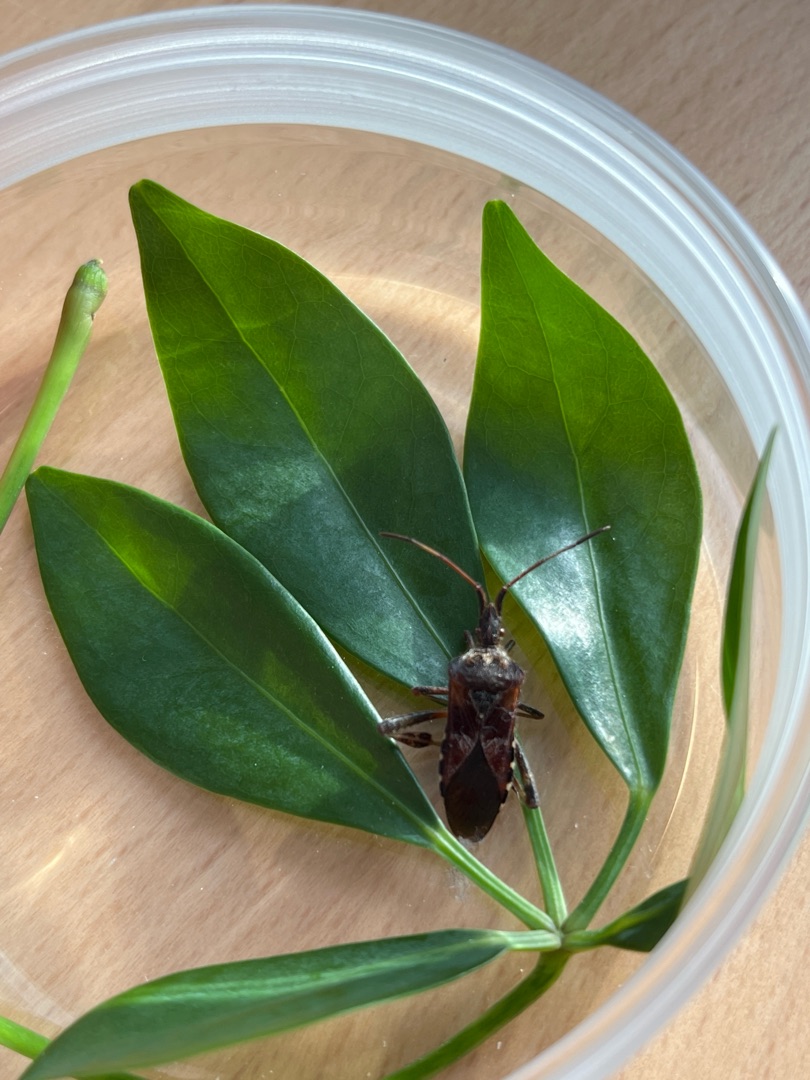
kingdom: Animalia
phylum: Arthropoda
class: Insecta
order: Hemiptera
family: Coreidae
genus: Leptoglossus
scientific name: Leptoglossus occidentalis
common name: Amerikansk fyrretæge
